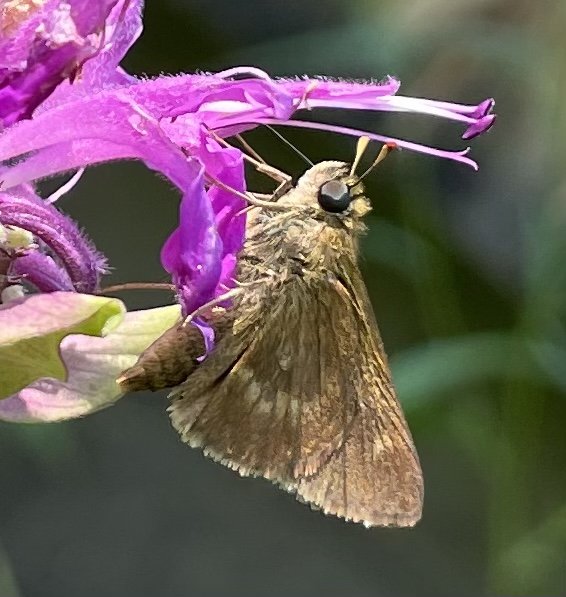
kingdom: Animalia
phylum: Arthropoda
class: Insecta
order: Lepidoptera
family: Hesperiidae
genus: Polites
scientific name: Polites egeremet
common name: Northern Broken-Dash
